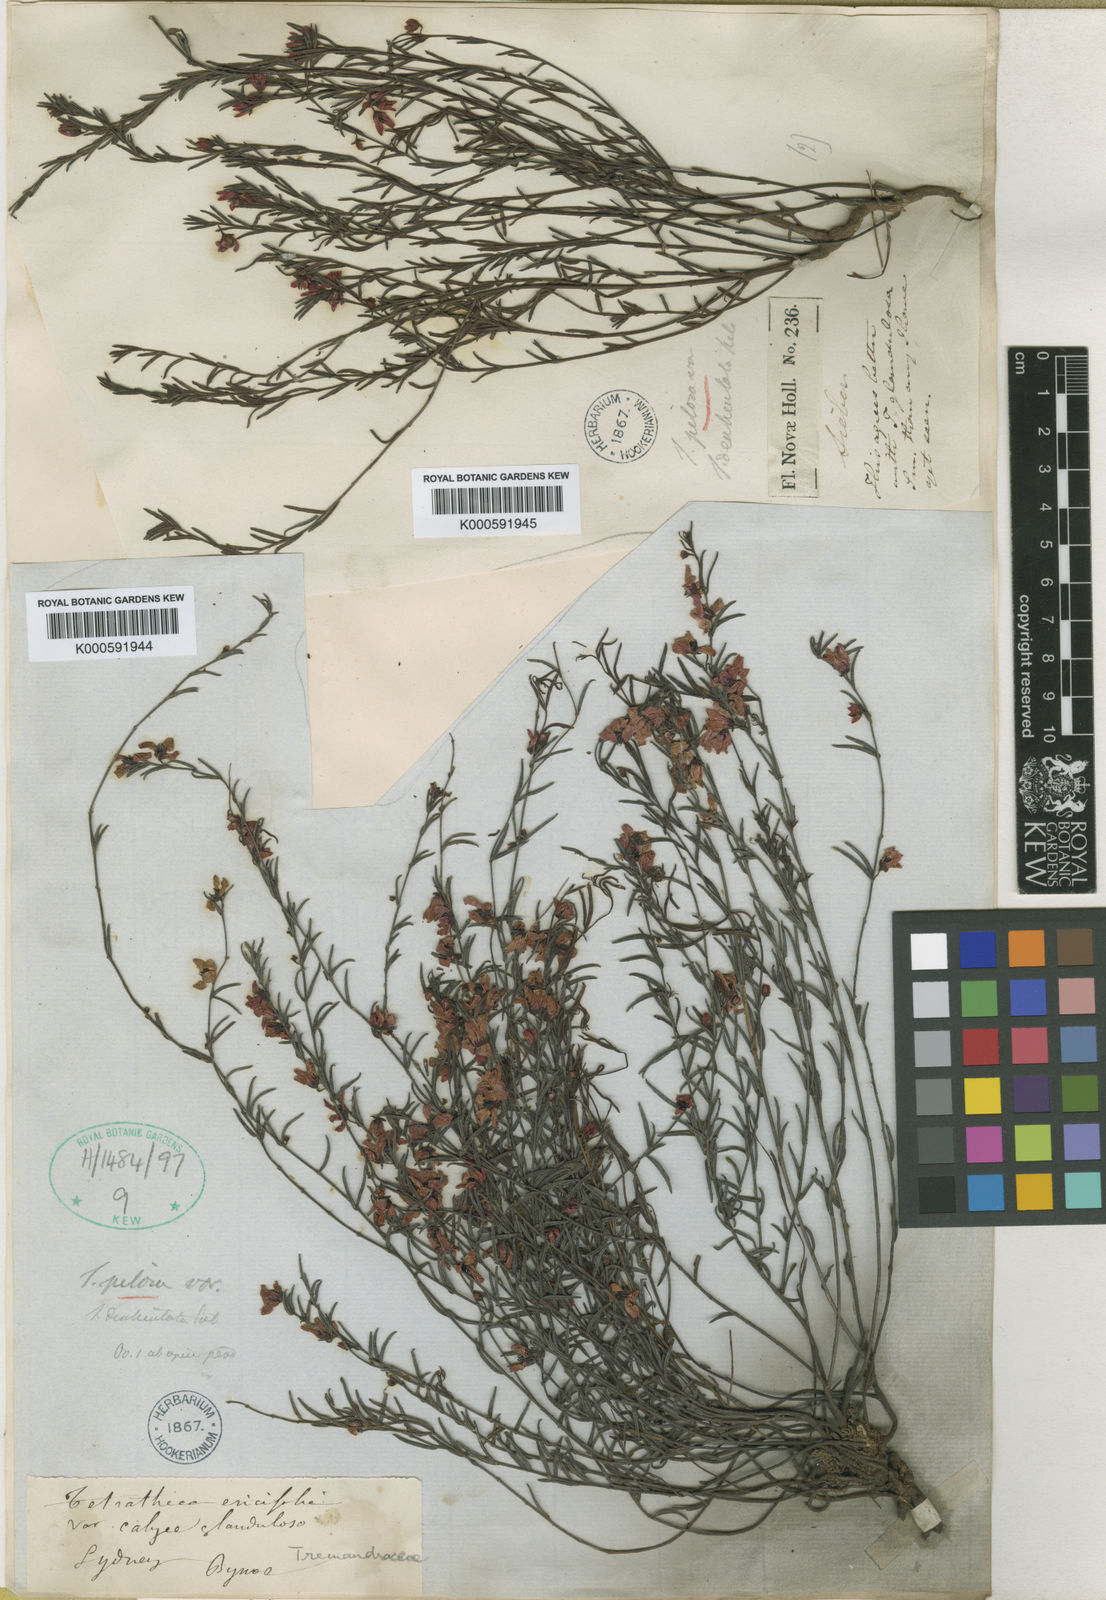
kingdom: Plantae
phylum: Tracheophyta
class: Magnoliopsida
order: Oxalidales
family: Elaeocarpaceae
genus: Tetratheca
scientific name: Tetratheca labillardierei
